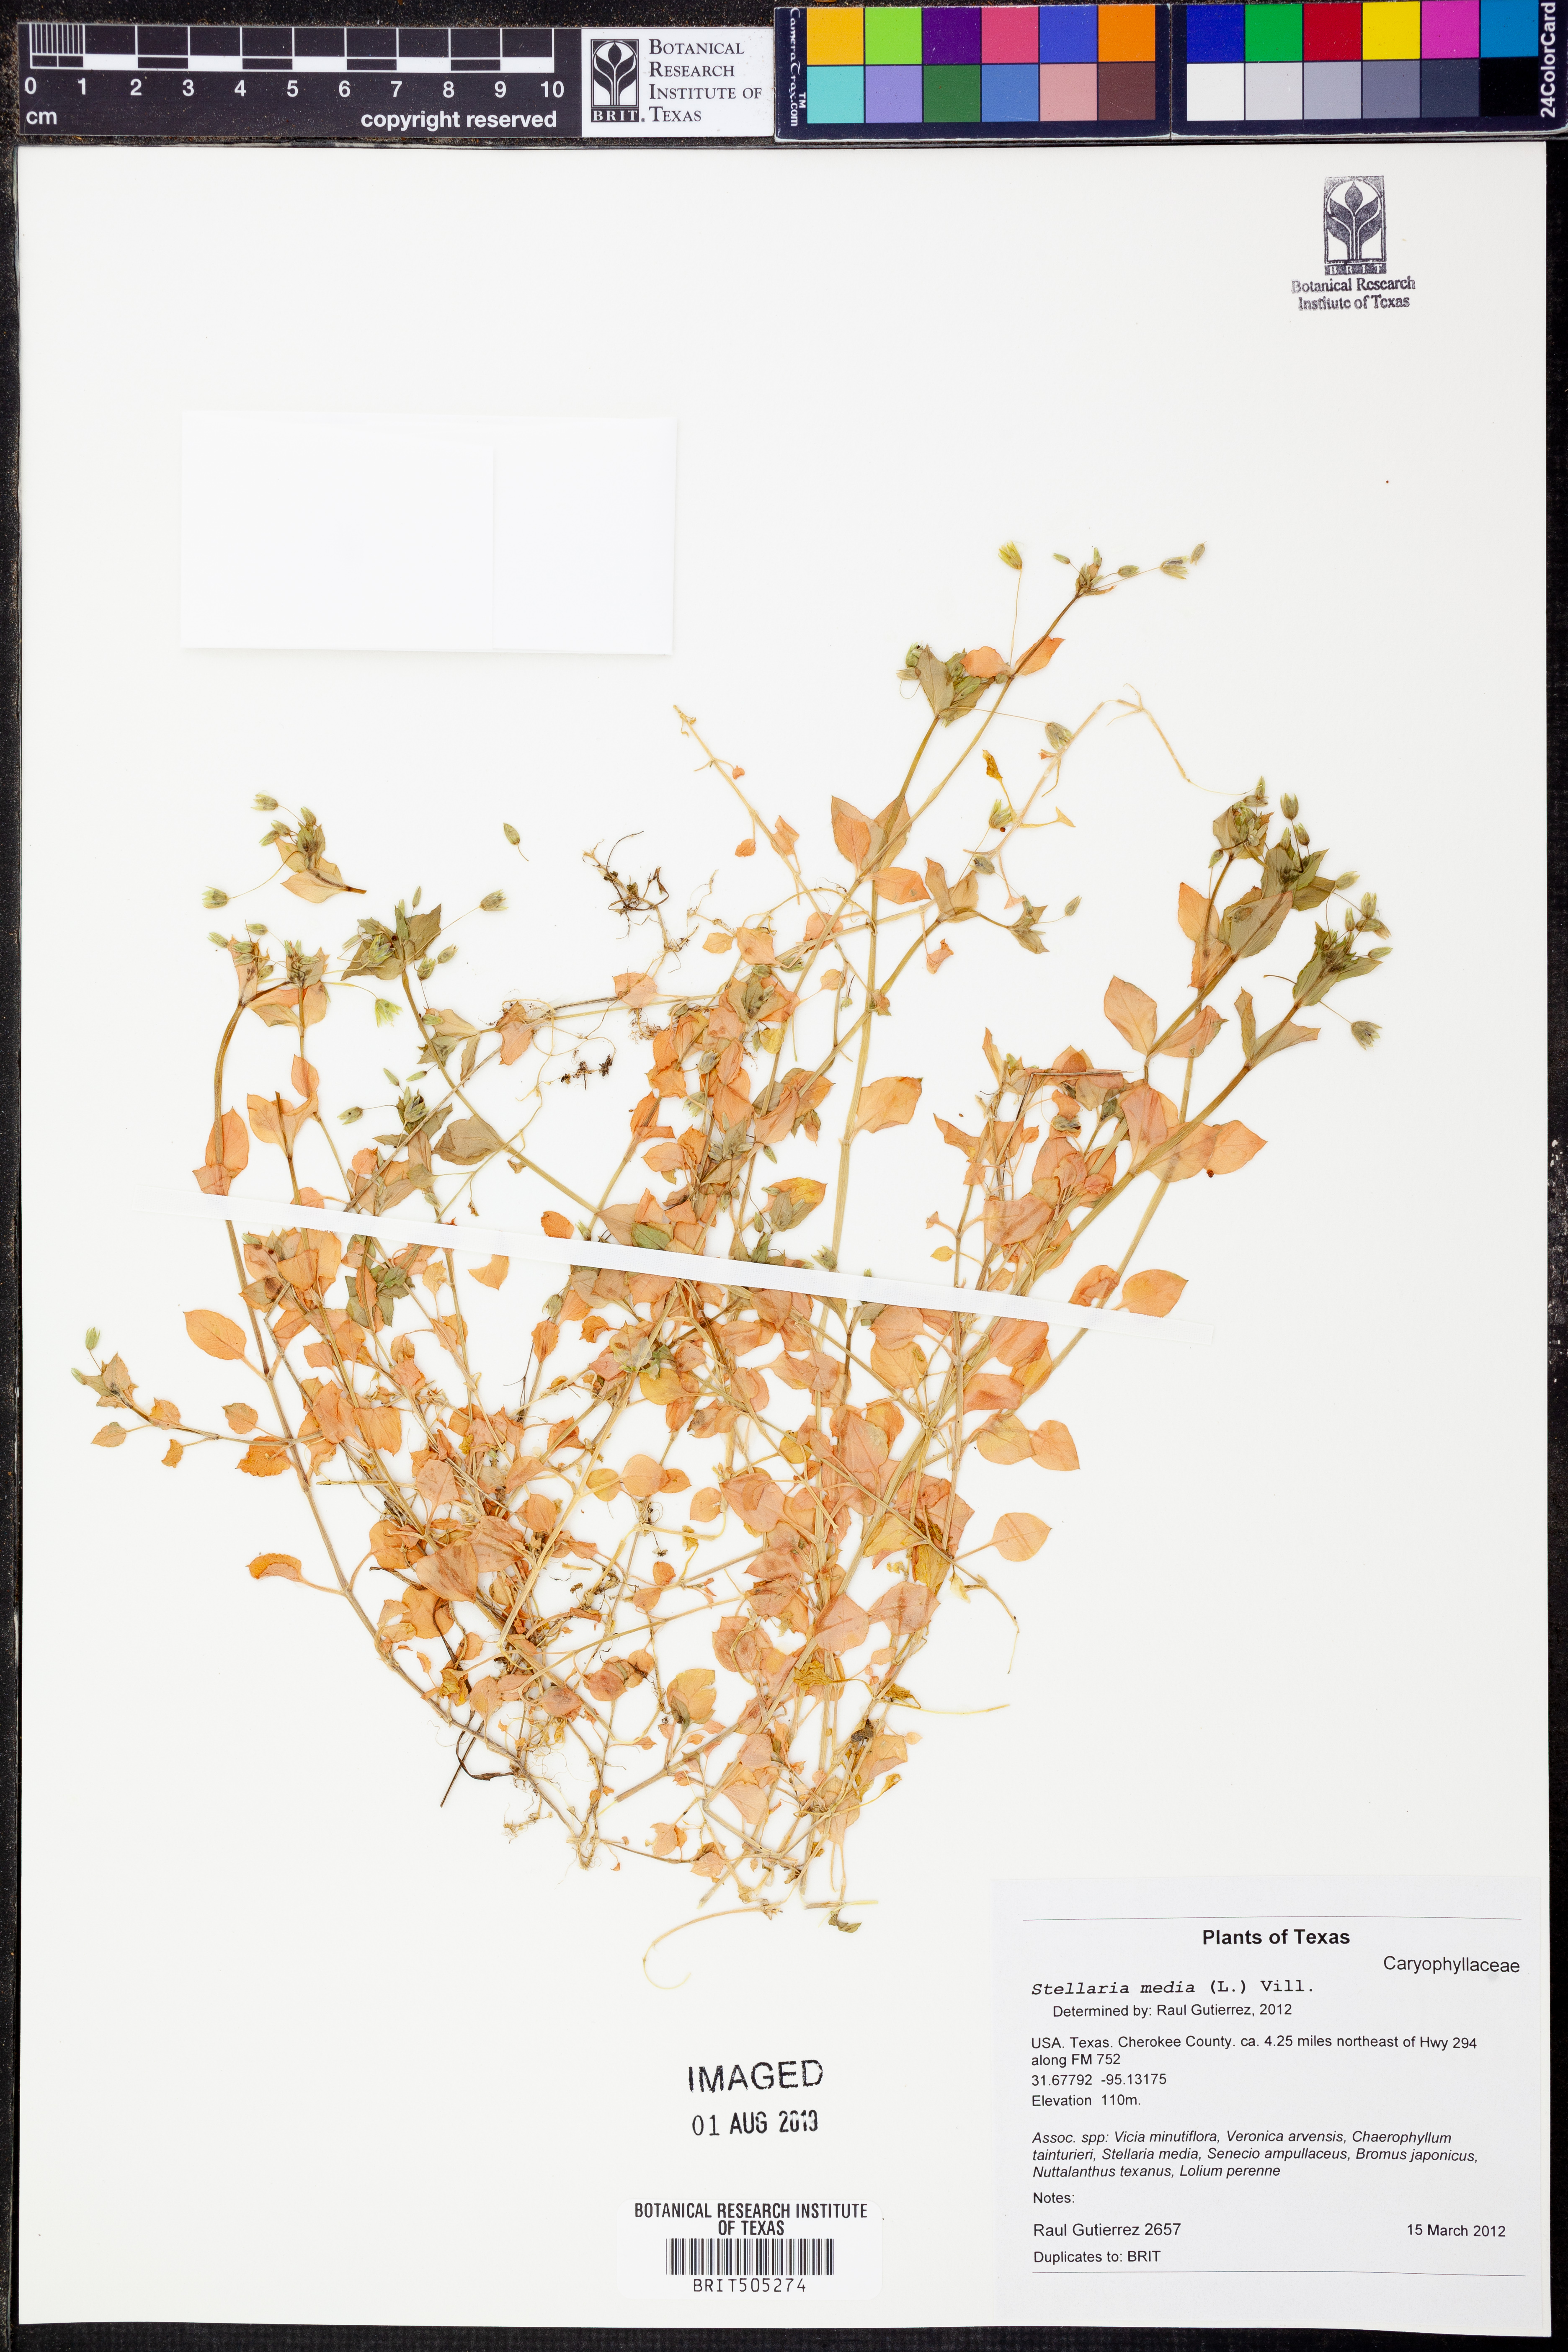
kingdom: Plantae
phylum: Tracheophyta
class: Magnoliopsida
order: Caryophyllales
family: Caryophyllaceae
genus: Stellaria
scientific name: Stellaria media
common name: Common chickweed
